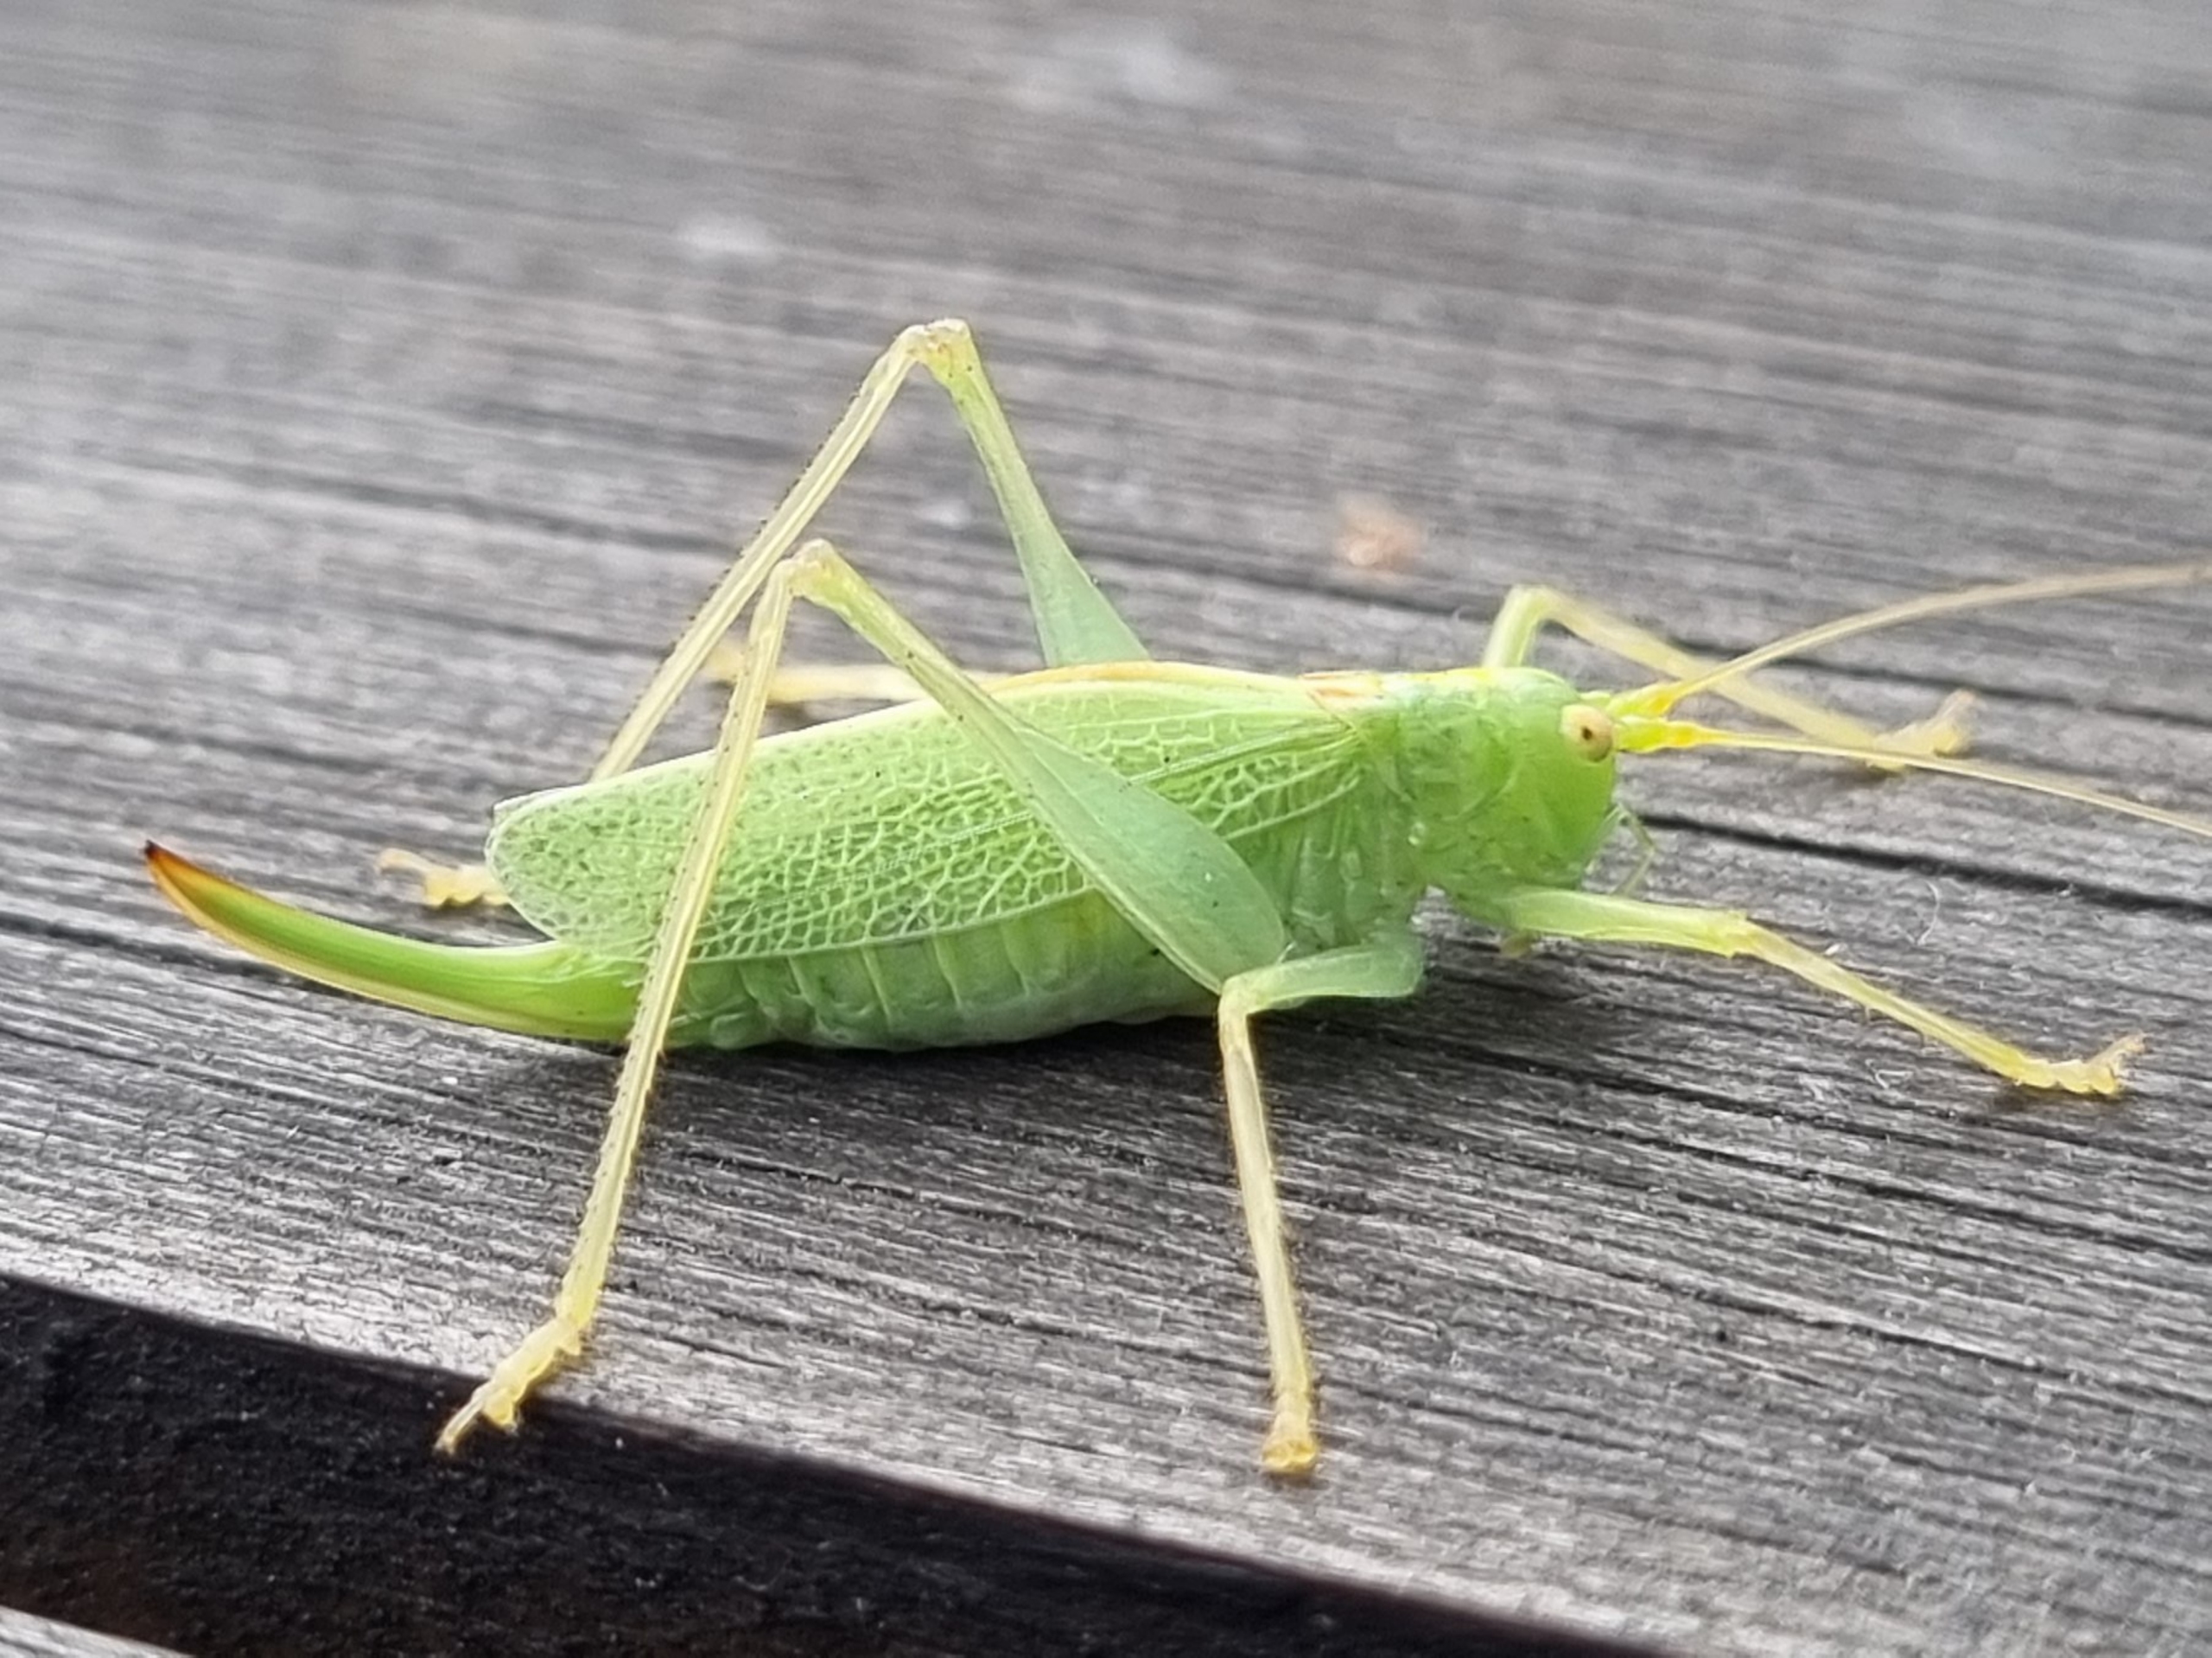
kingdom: Animalia
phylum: Arthropoda
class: Insecta
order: Orthoptera
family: Tettigoniidae
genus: Meconema
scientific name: Meconema thalassinum
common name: Egegræshoppe
